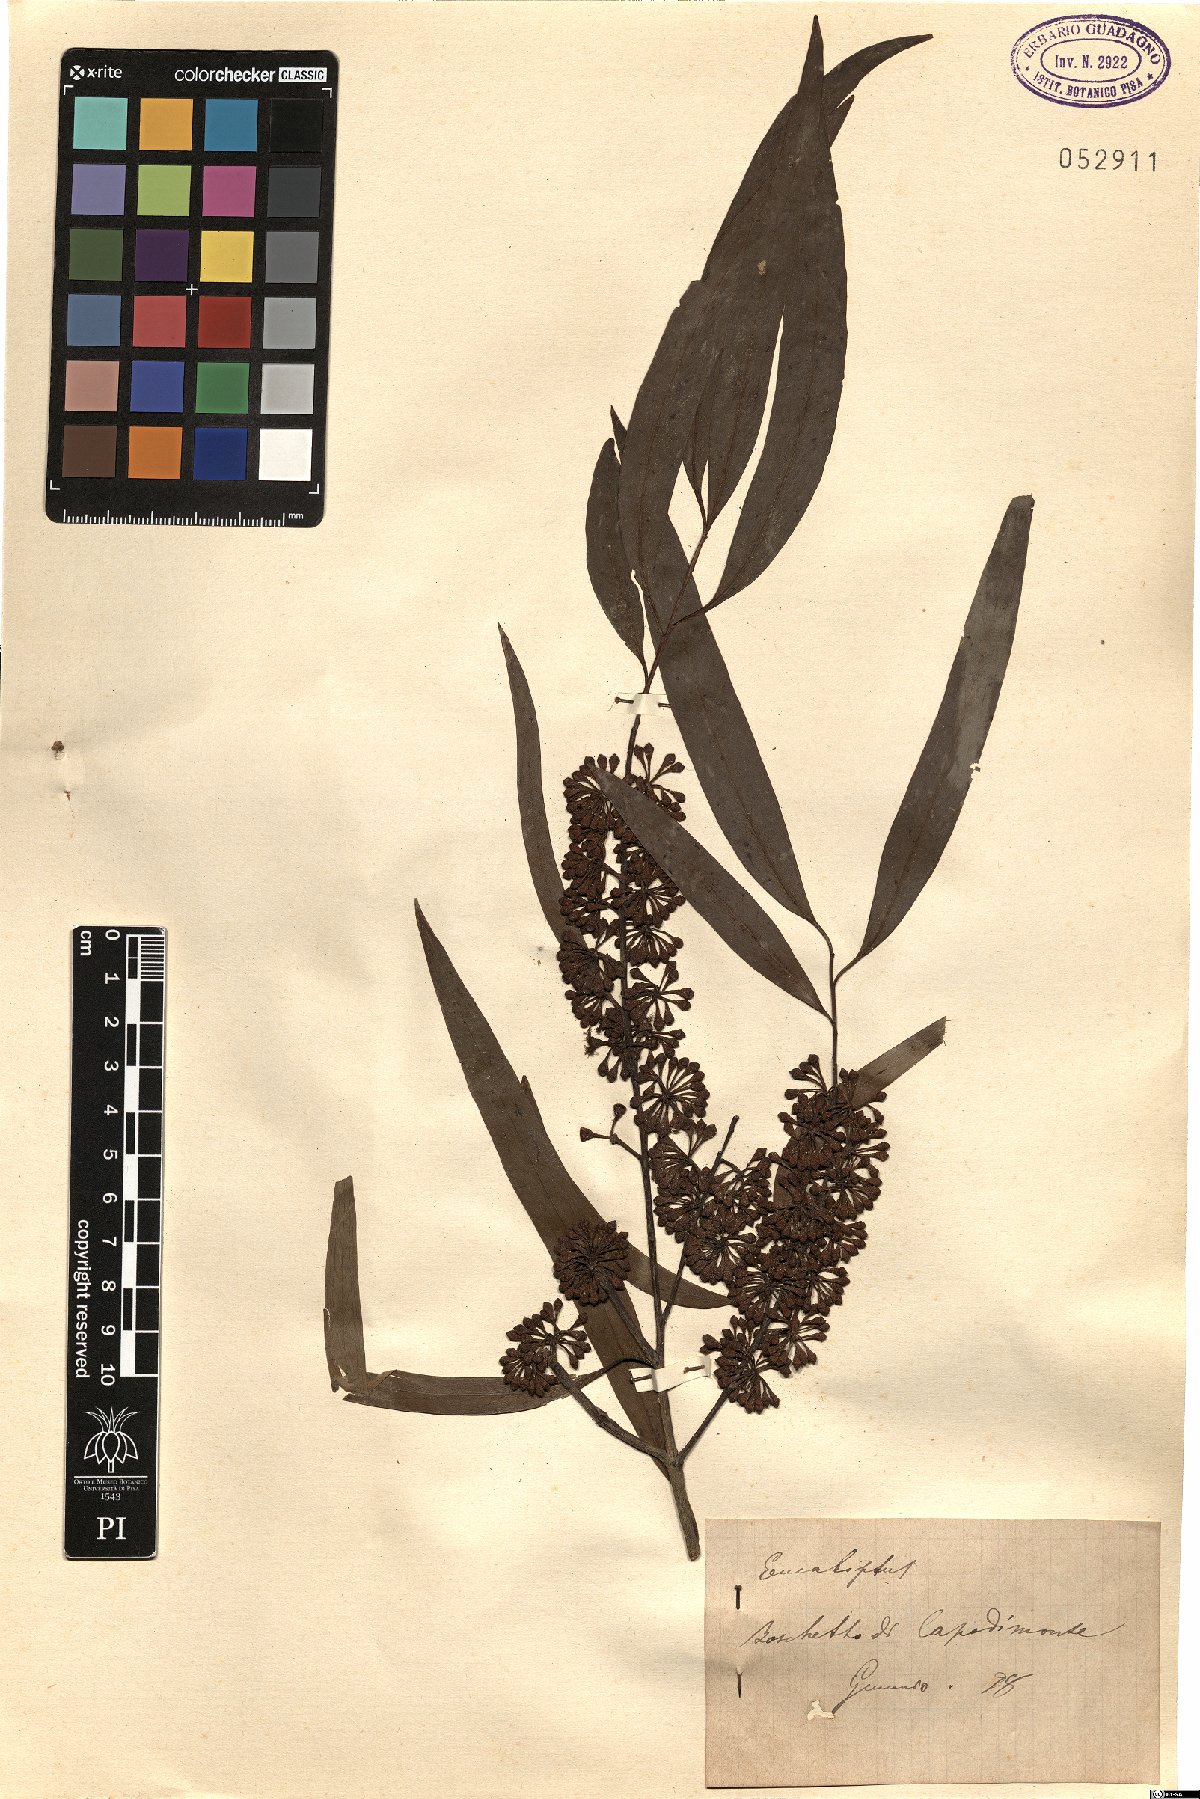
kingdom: Plantae
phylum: Tracheophyta
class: Magnoliopsida
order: Myrtales
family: Myrtaceae
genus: Eucalyptus
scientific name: Eucalyptus
